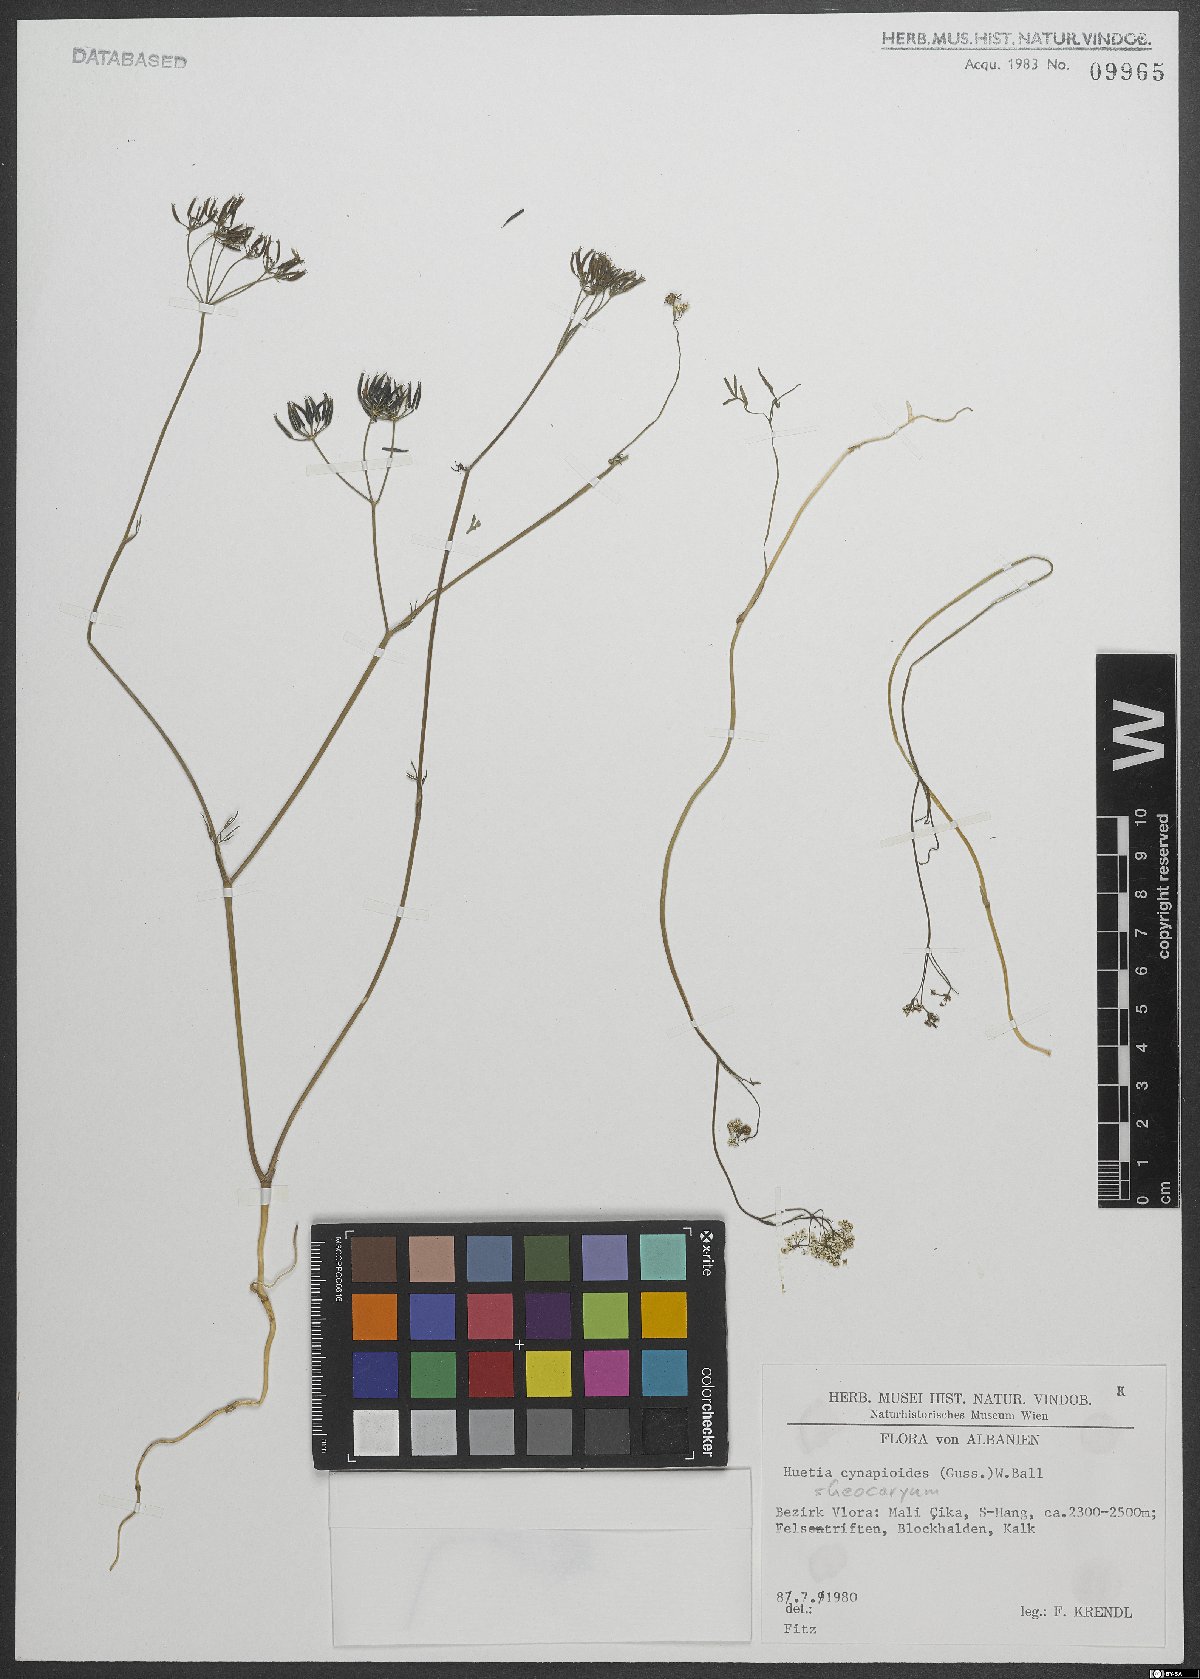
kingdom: Plantae
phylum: Tracheophyta
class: Magnoliopsida
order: Apiales
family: Apiaceae
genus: Geocaryum
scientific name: Geocaryum cynapioides
